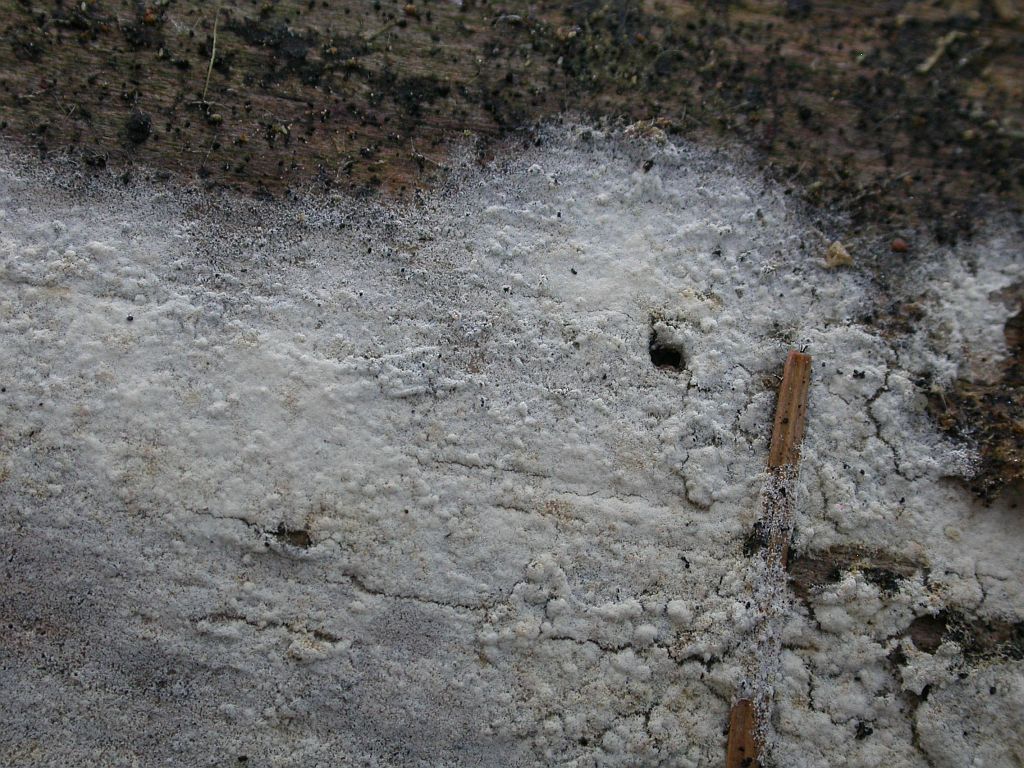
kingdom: Fungi
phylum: Basidiomycota
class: Agaricomycetes
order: Cantharellales
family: Botryobasidiaceae
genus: Botryobasidium
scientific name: Botryobasidium subcoronatum
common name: almindelig spindhinde
